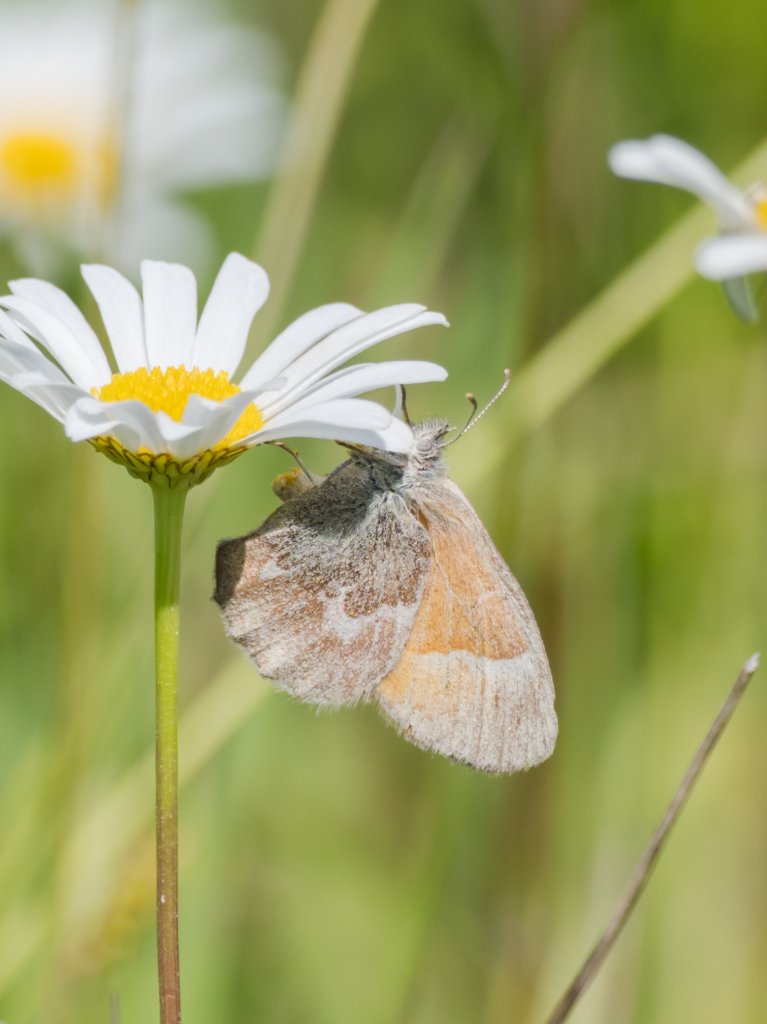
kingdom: Animalia
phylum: Arthropoda
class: Insecta
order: Lepidoptera
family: Nymphalidae
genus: Coenonympha
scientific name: Coenonympha tullia
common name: Large Heath
